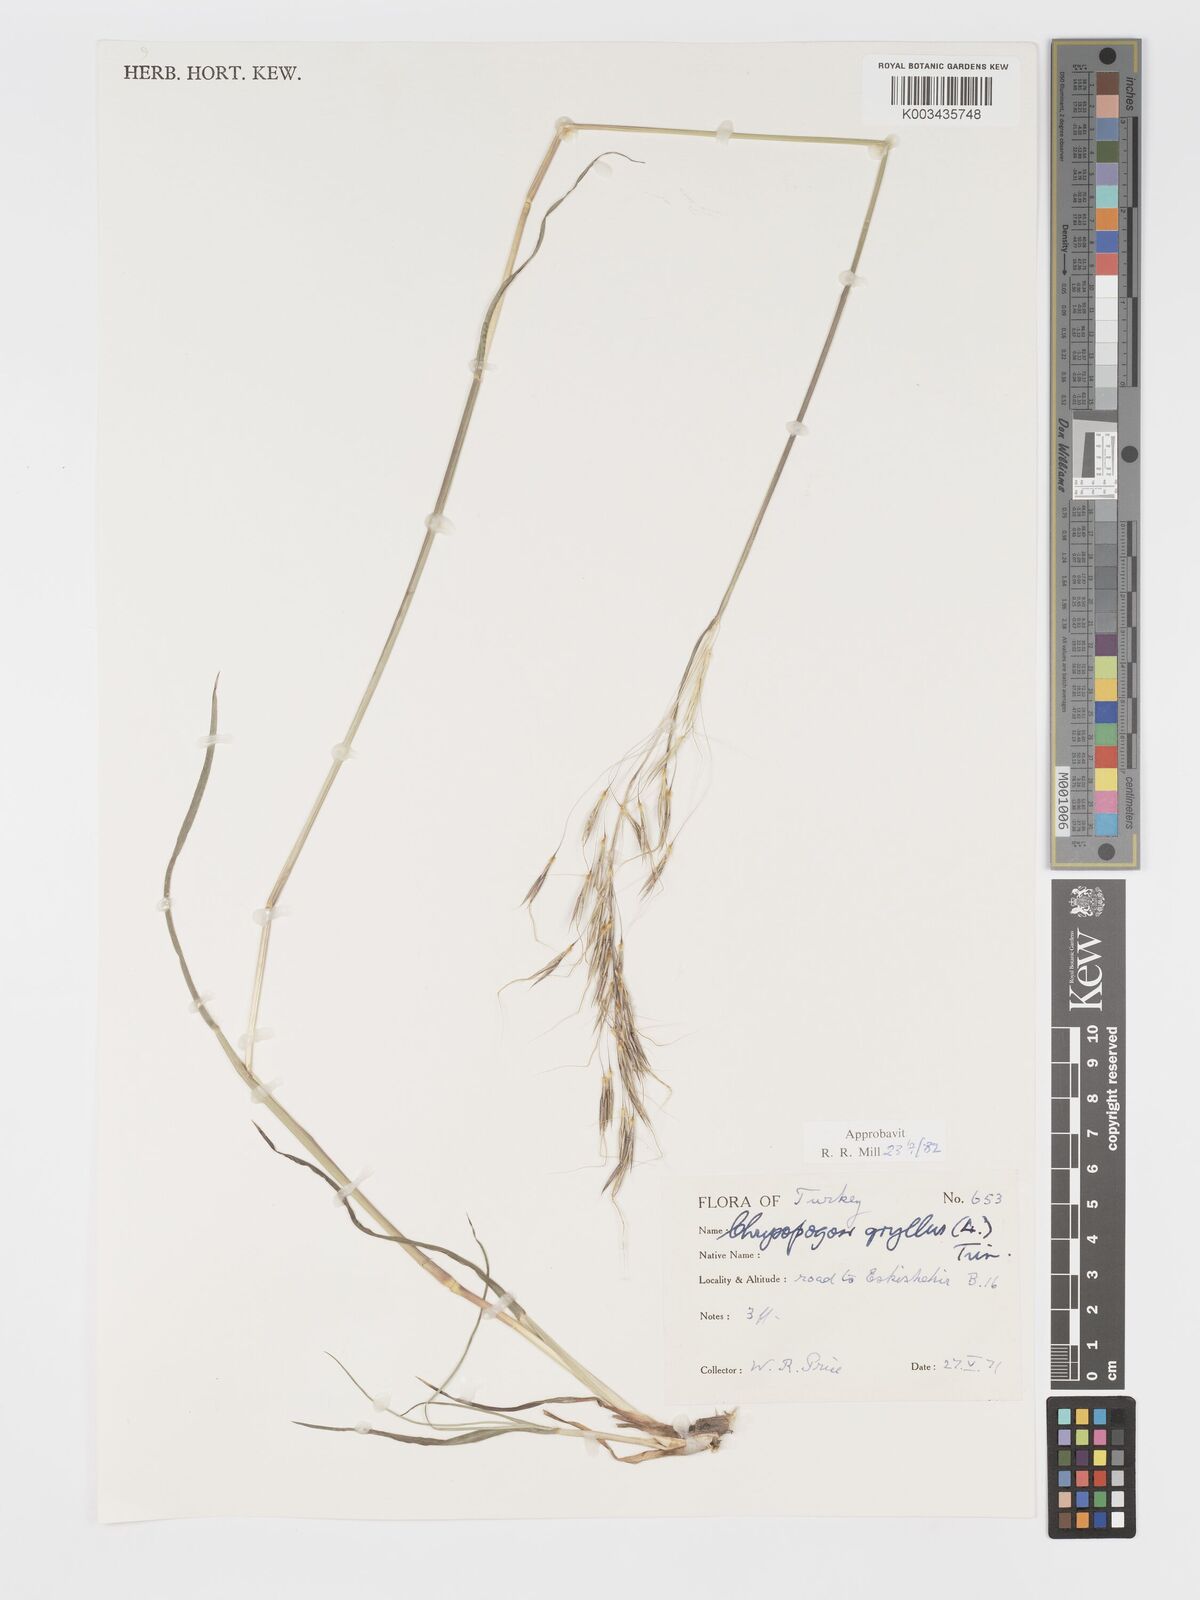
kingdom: Plantae
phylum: Tracheophyta
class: Liliopsida
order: Poales
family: Poaceae
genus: Chrysopogon
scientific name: Chrysopogon gryllus
